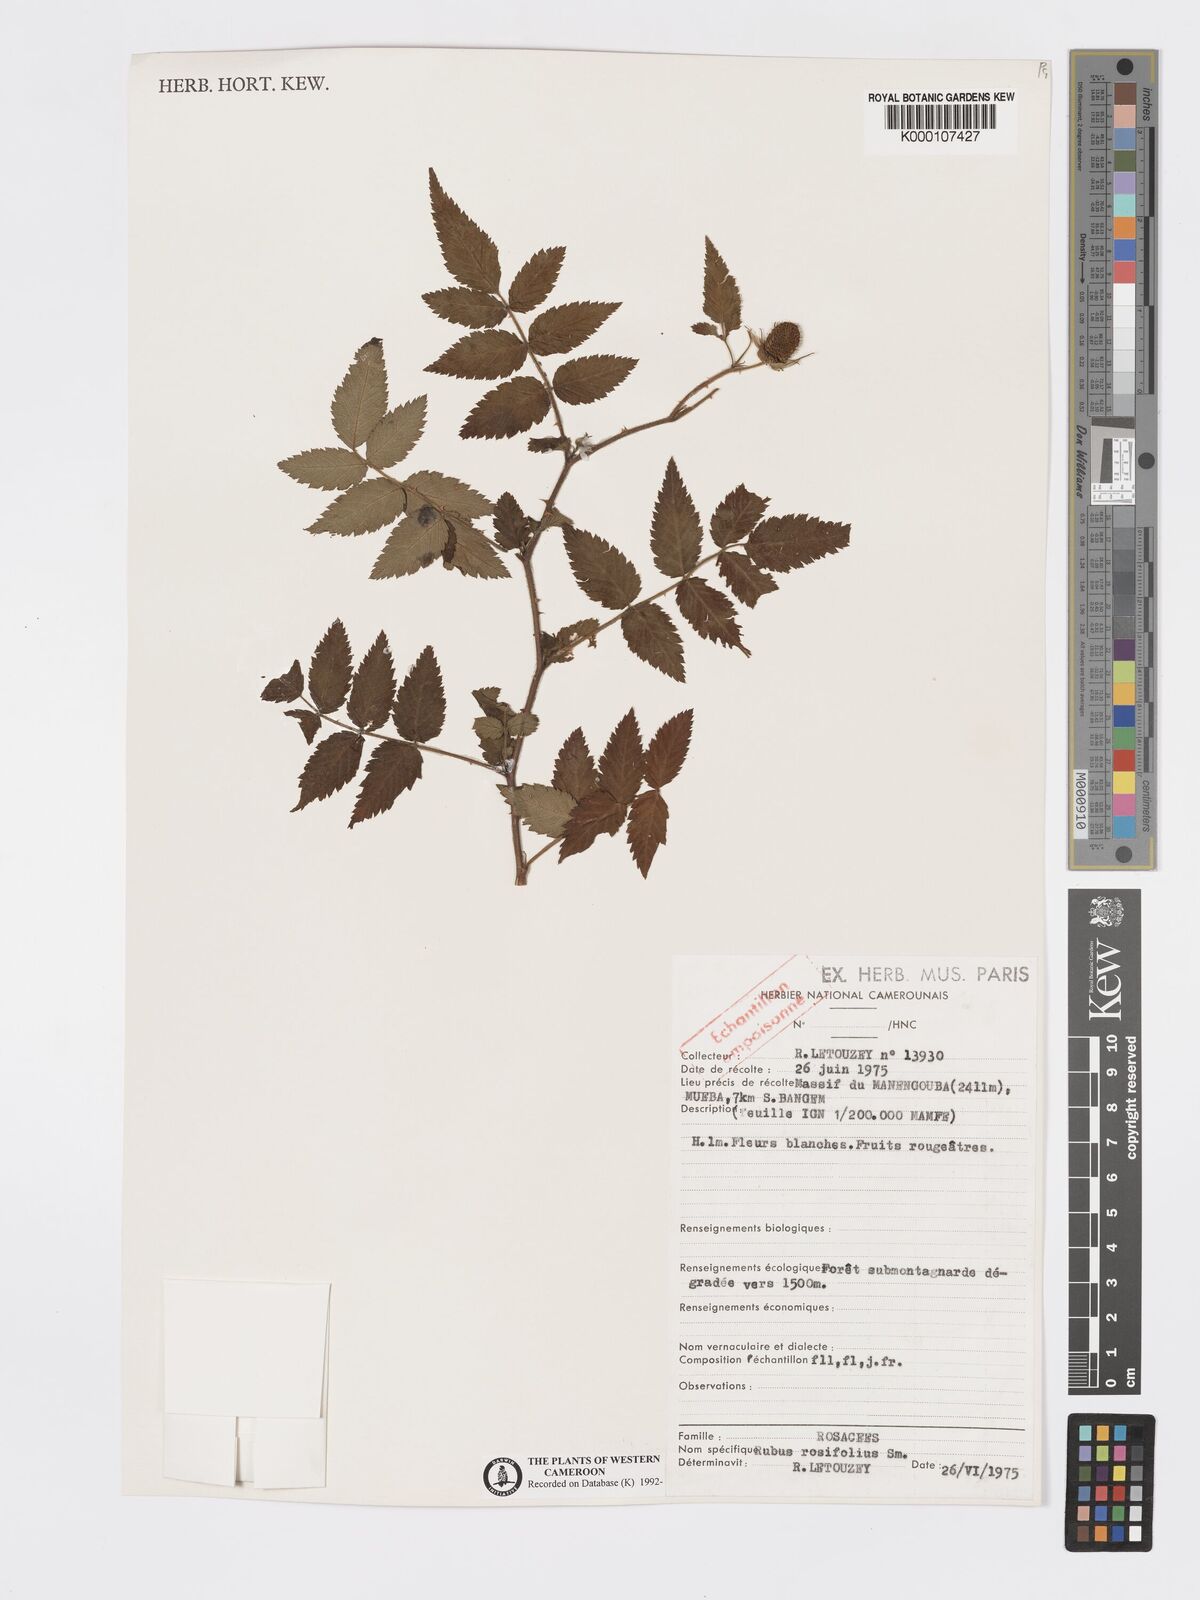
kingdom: Plantae
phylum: Tracheophyta
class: Magnoliopsida
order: Rosales
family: Rosaceae
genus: Rubus
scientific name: Rubus rosifolius
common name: Roseleaf raspberry
